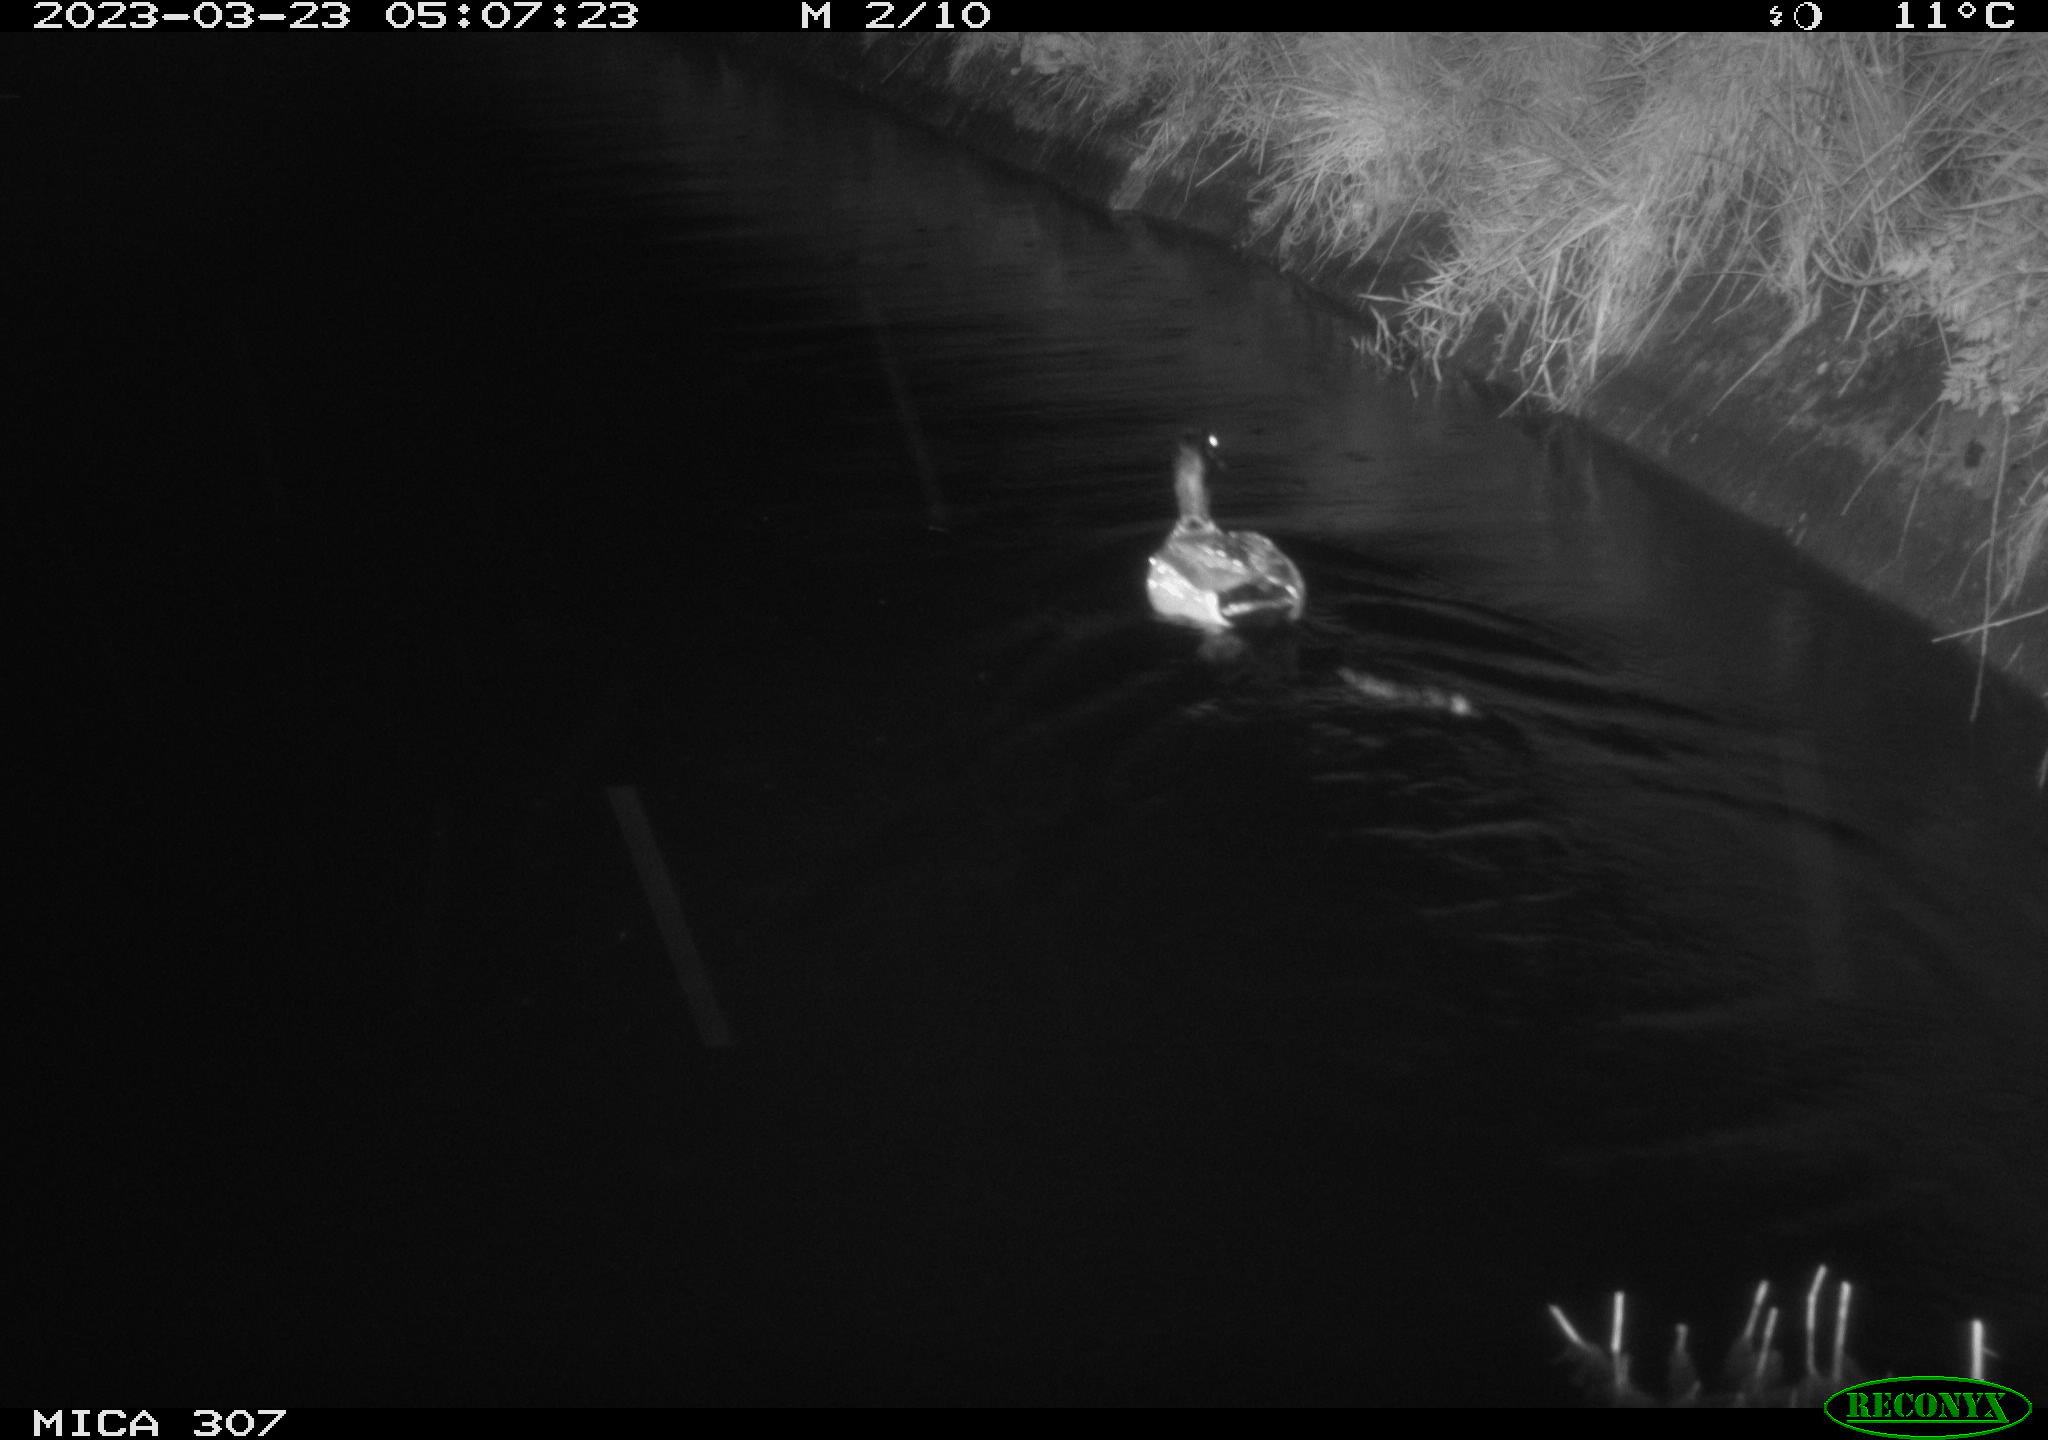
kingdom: Animalia
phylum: Chordata
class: Aves
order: Anseriformes
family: Anatidae
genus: Anas
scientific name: Anas
